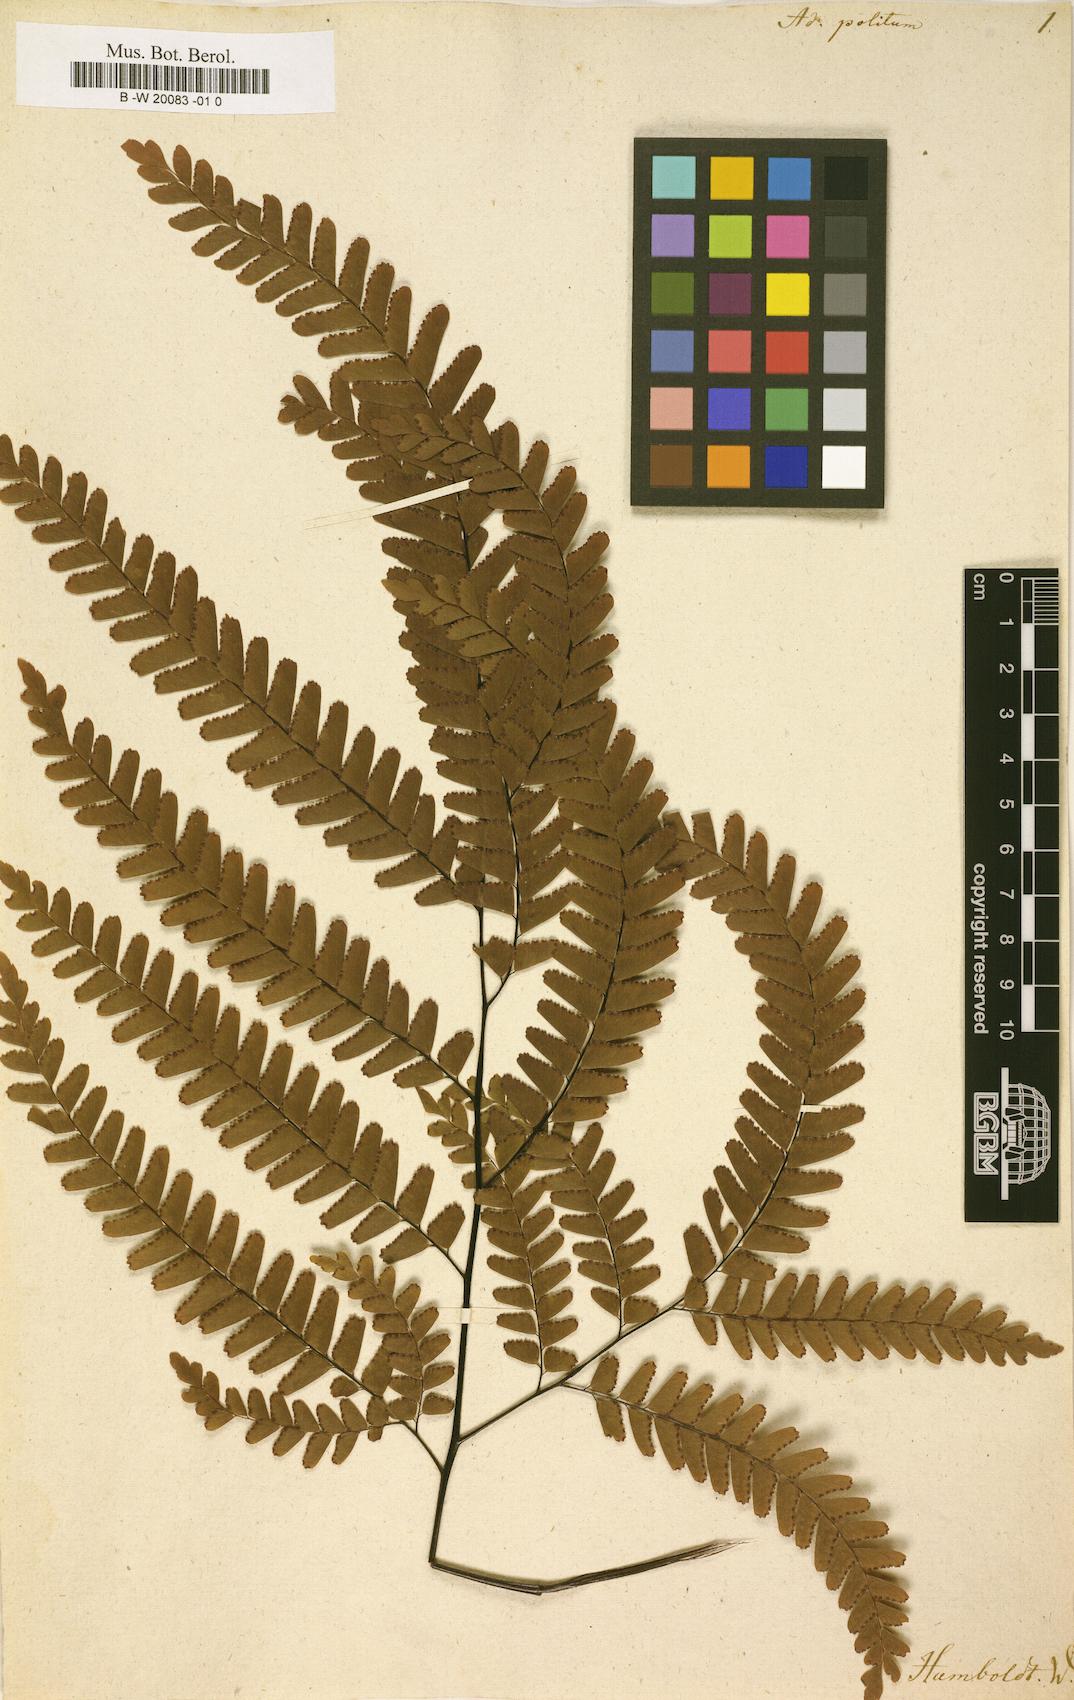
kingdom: Plantae
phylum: Tracheophyta
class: Polypodiopsida
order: Polypodiales
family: Pteridaceae
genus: Adiantum
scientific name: Adiantum politum
